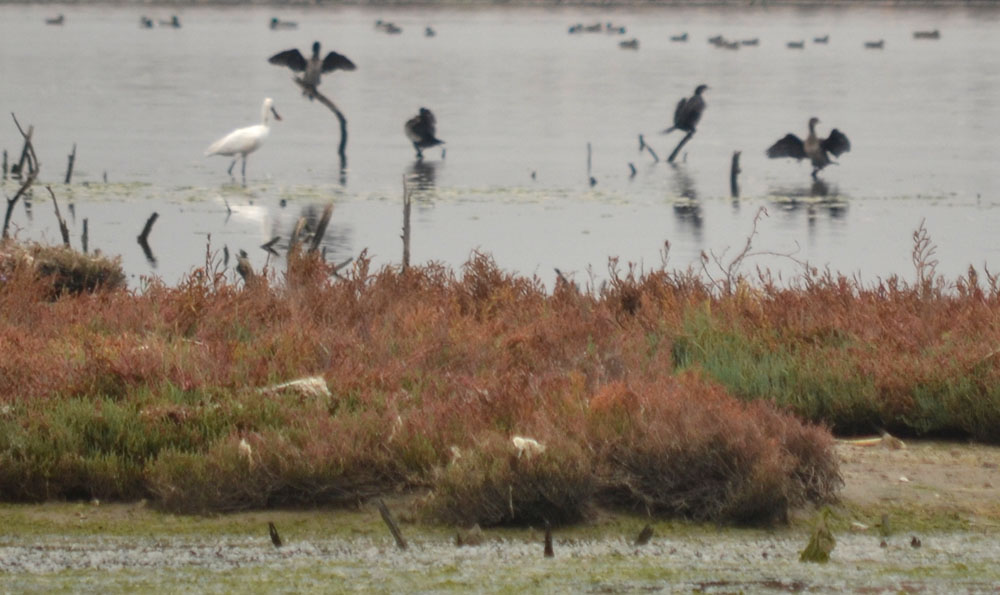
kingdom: Animalia
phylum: Chordata
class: Aves
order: Suliformes
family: Phalacrocoracidae
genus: Phalacrocorax
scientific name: Phalacrocorax
